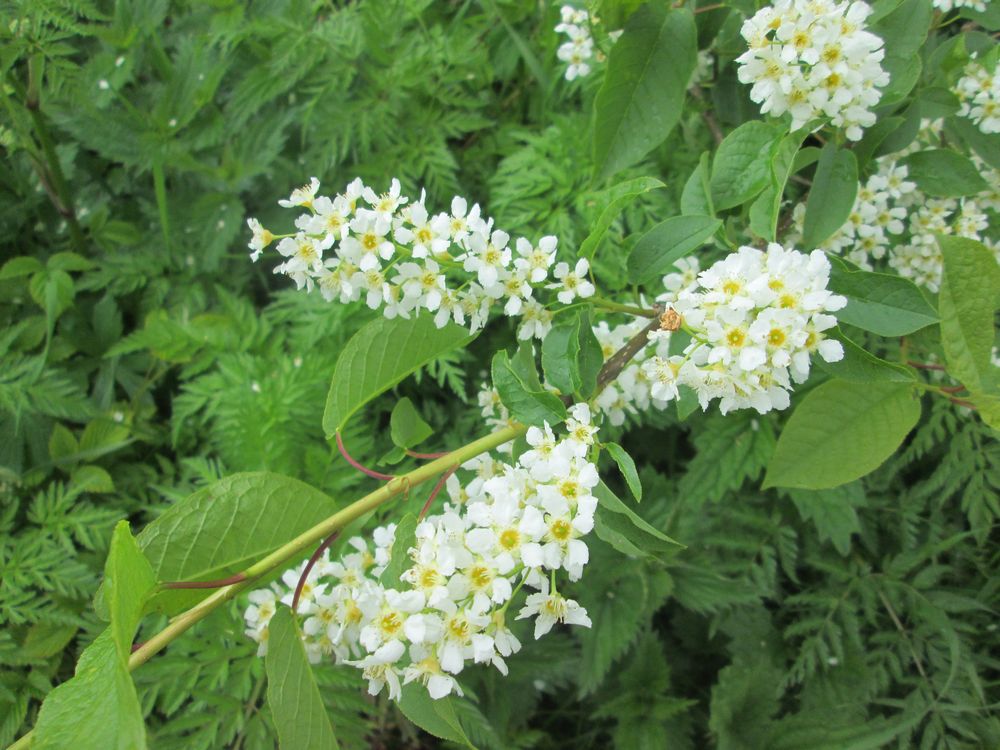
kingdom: Plantae
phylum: Tracheophyta
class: Magnoliopsida
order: Rosales
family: Rosaceae
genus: Prunus
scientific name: Prunus padus
